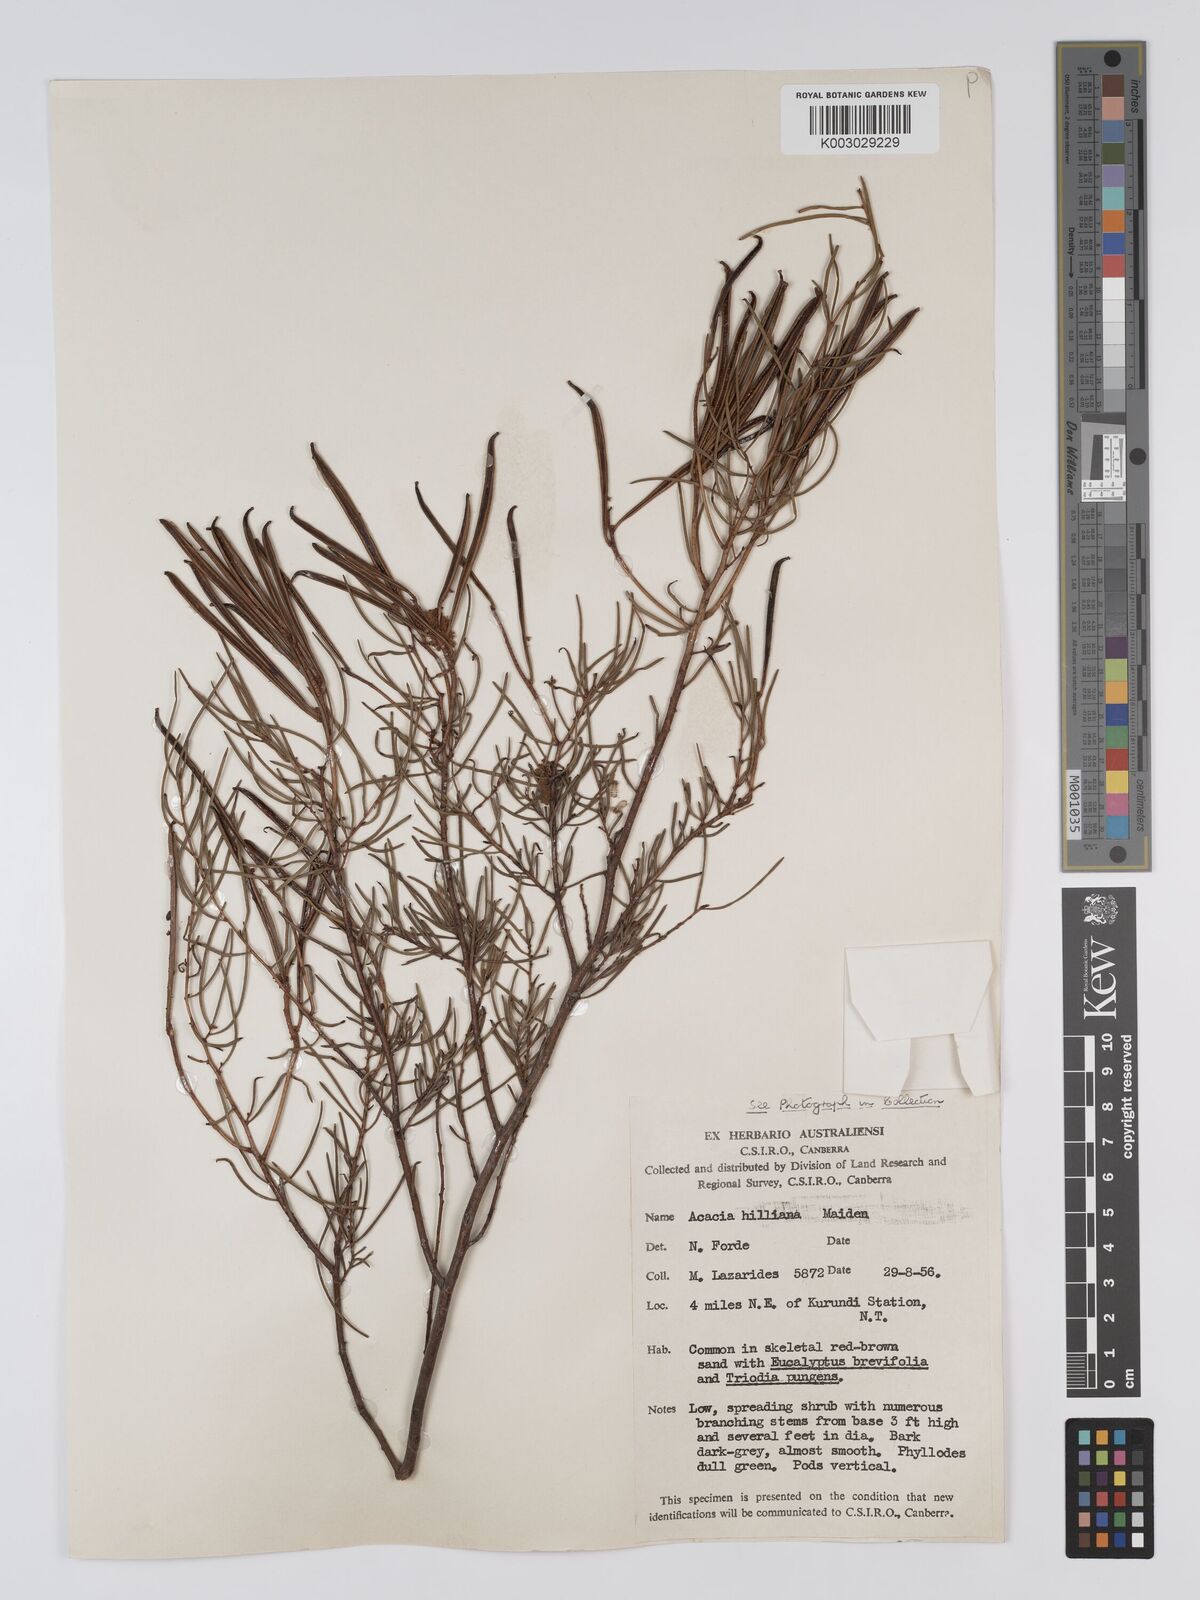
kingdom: Plantae
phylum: Tracheophyta
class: Magnoliopsida
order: Fabales
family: Fabaceae
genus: Acacia
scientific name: Acacia hilliana
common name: Hill's tabletop wattle
